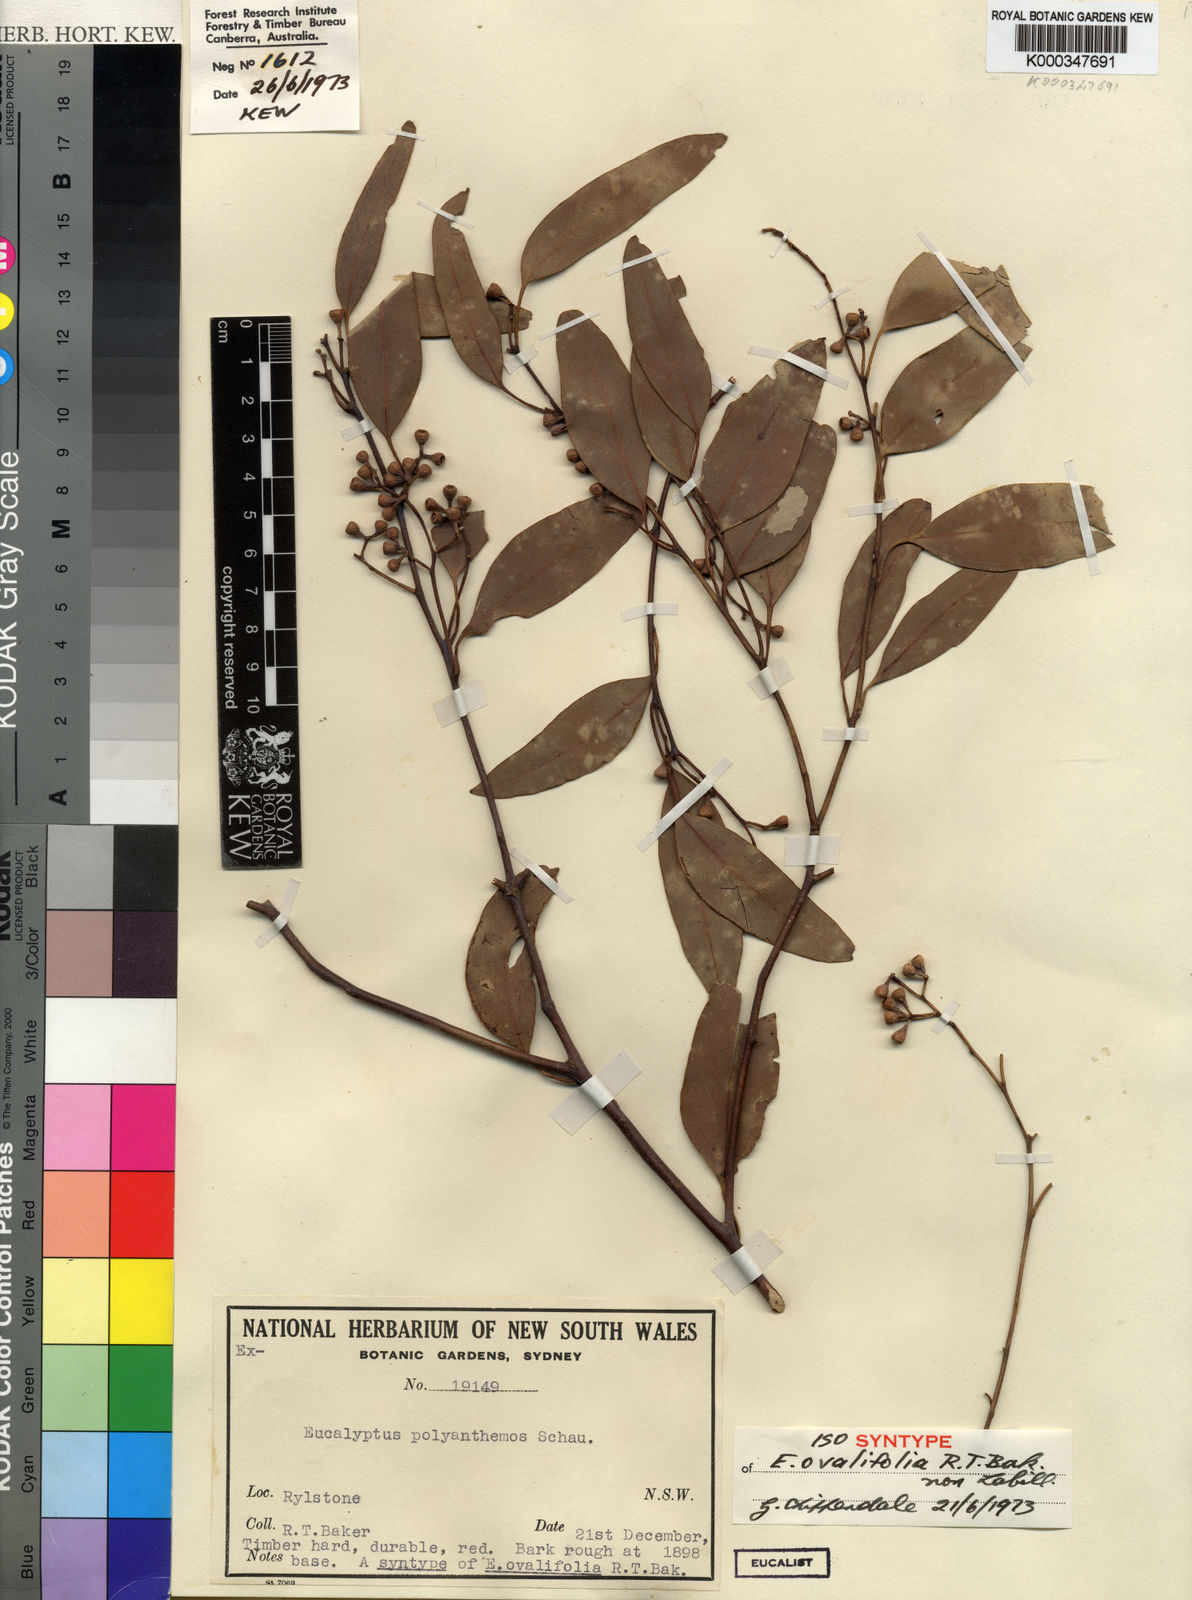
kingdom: Plantae
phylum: Tracheophyta
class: Magnoliopsida
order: Myrtales
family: Myrtaceae
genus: Eucalyptus
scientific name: Eucalyptus polyanthemos
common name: Red-box
